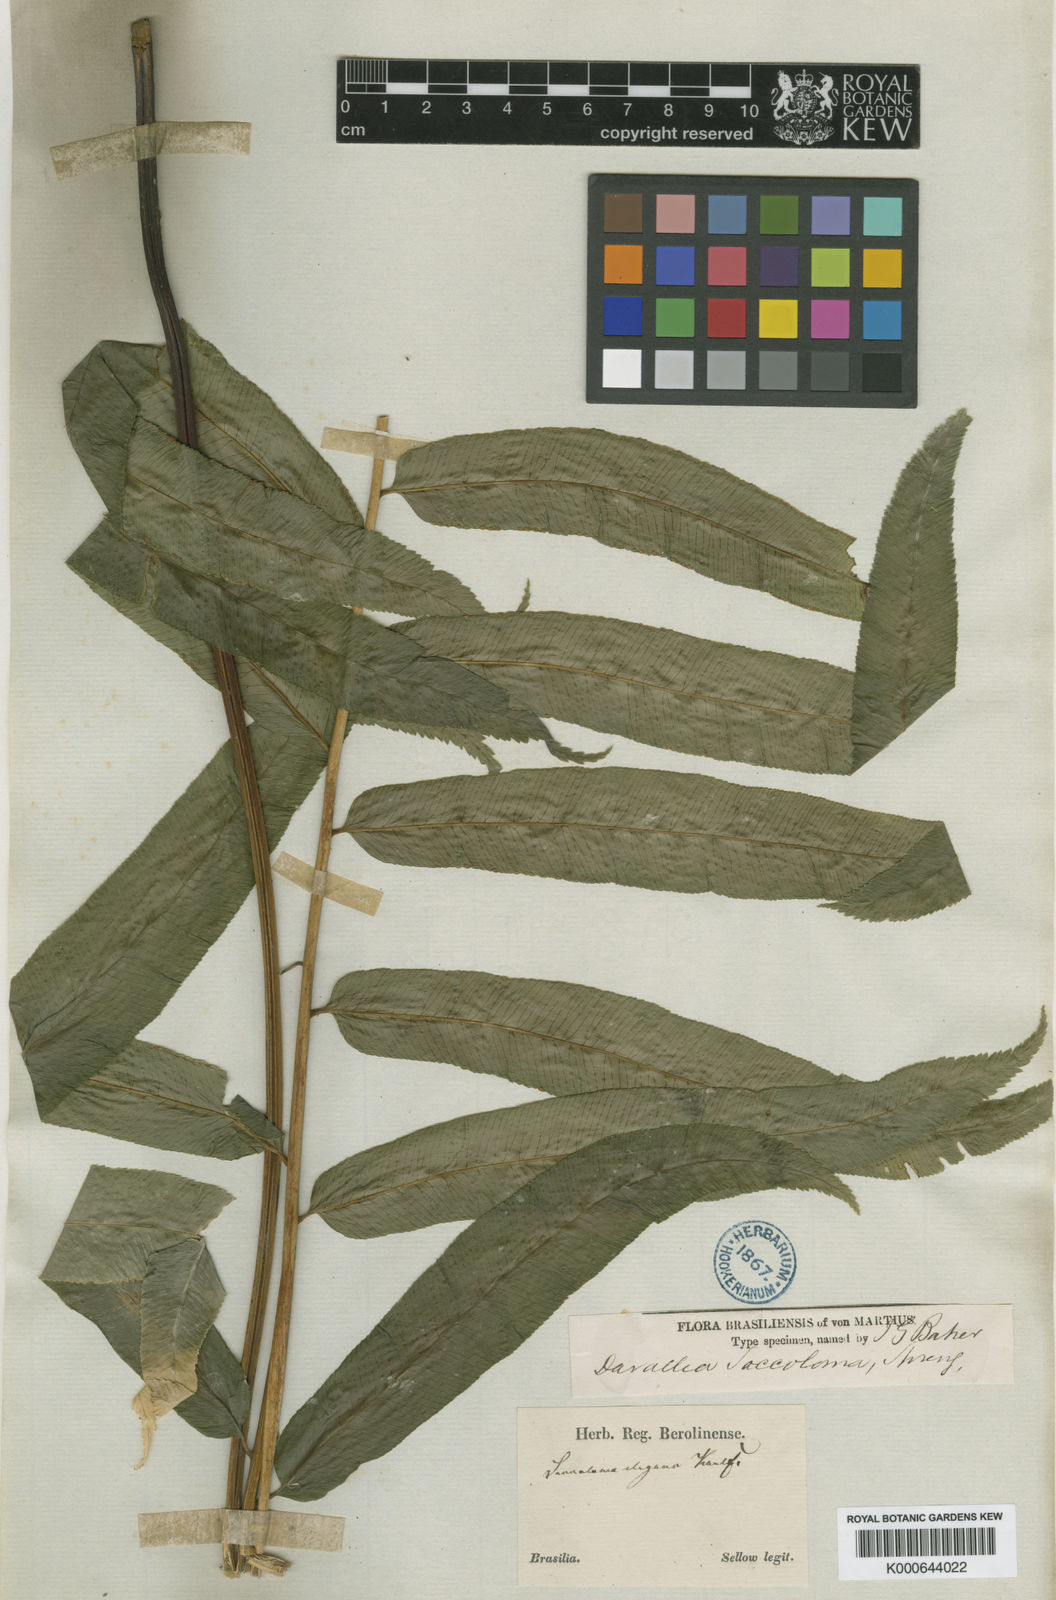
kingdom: Plantae
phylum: Tracheophyta
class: Polypodiopsida
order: Polypodiales
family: Saccolomataceae
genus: Saccoloma
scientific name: Saccoloma elegans
